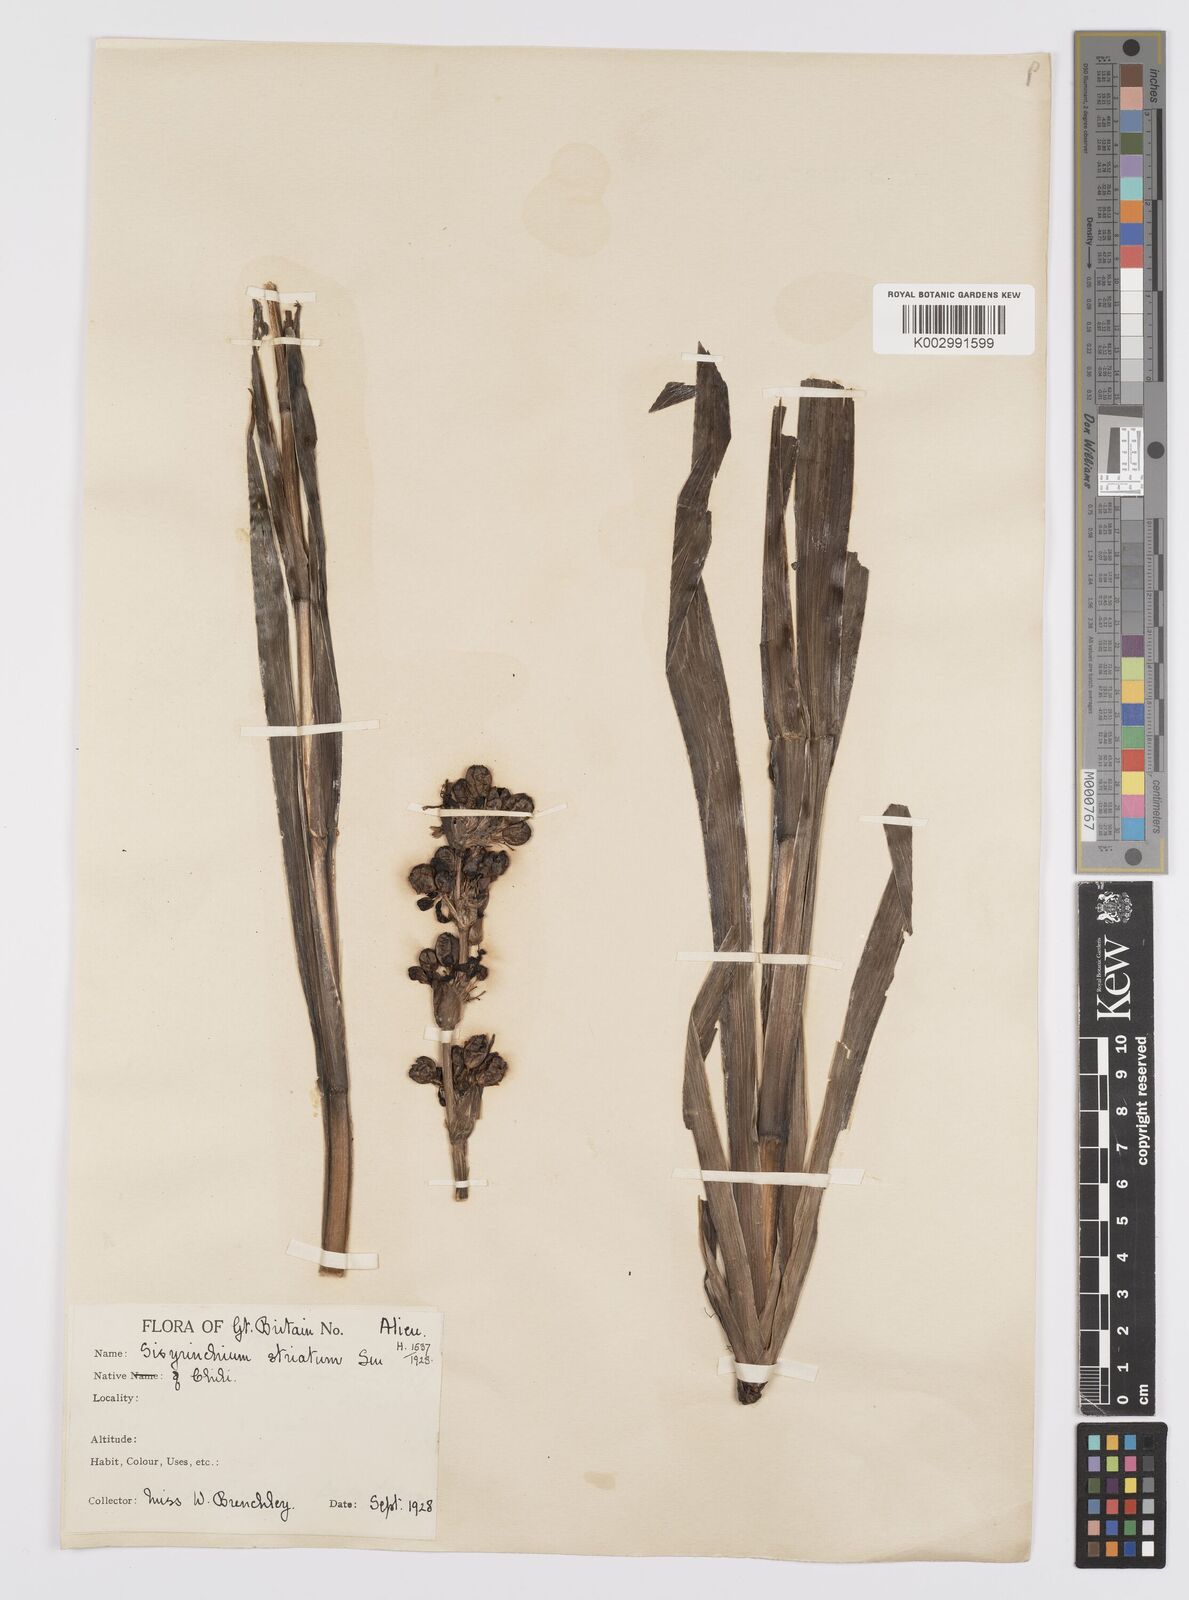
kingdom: Plantae
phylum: Tracheophyta
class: Liliopsida
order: Asparagales
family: Iridaceae
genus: Sisyrinchium
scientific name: Sisyrinchium striatum
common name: Pale yellow-eyed-grass
